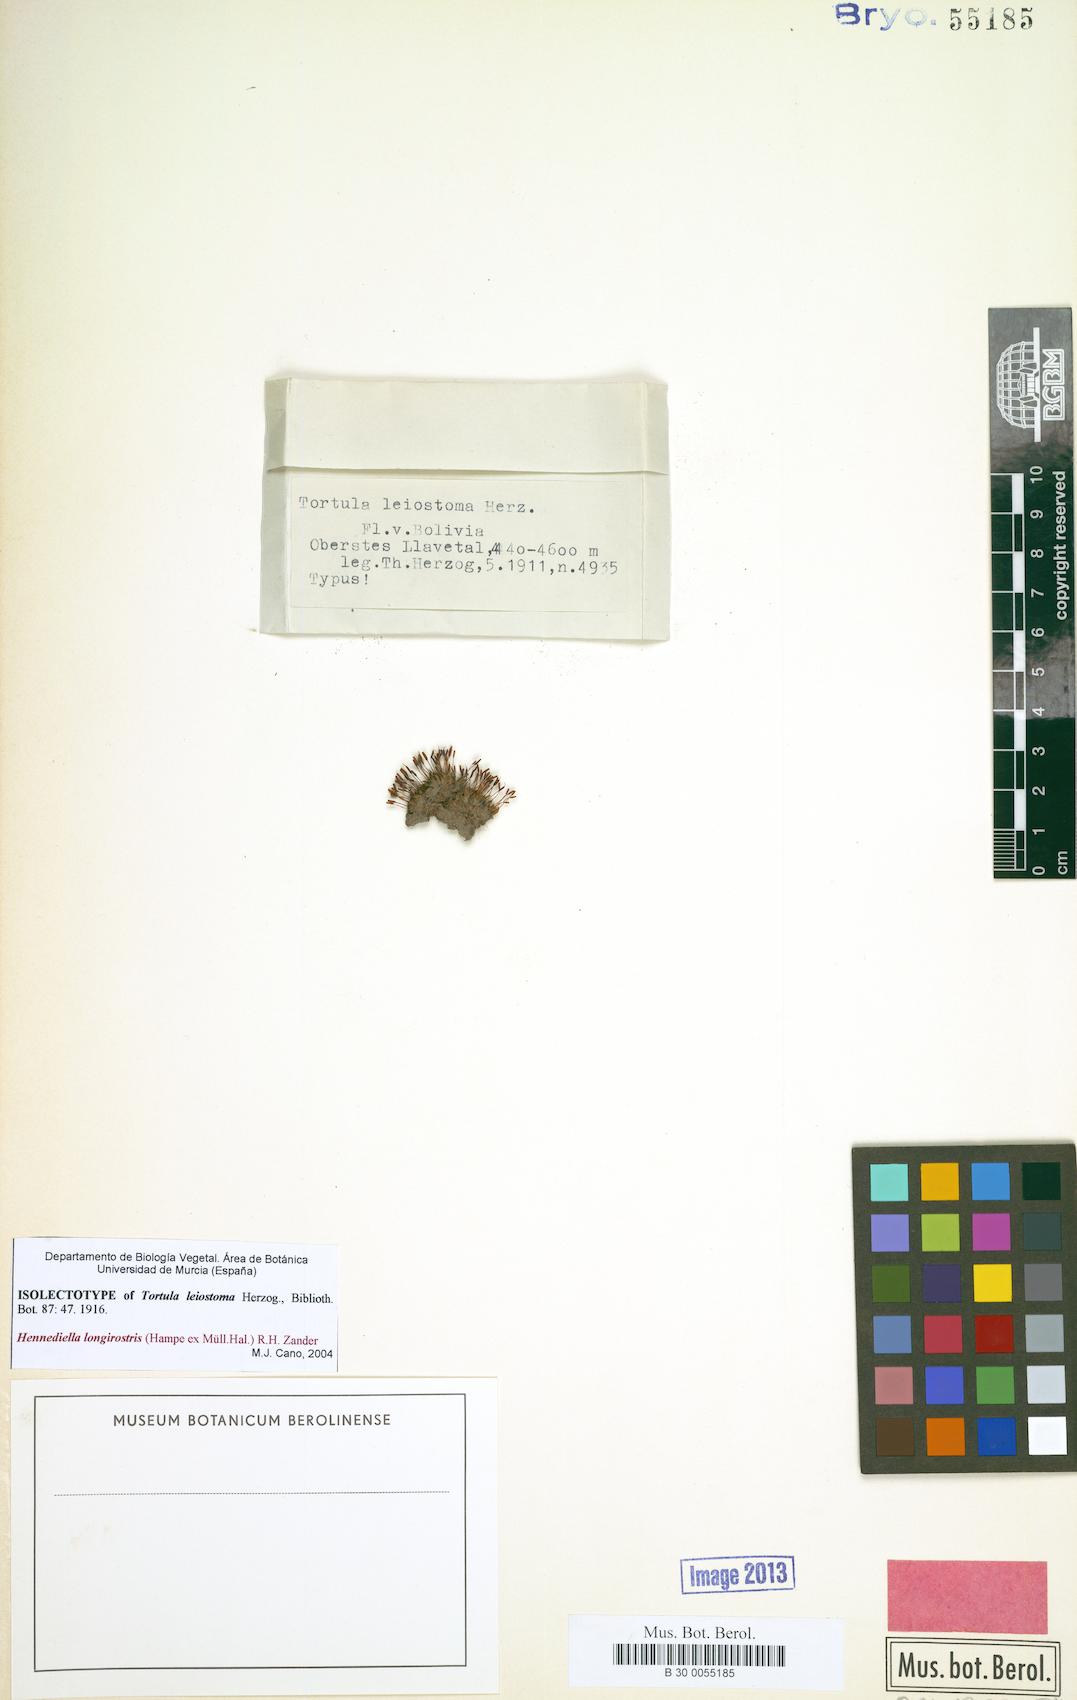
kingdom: Plantae
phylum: Bryophyta
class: Bryopsida
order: Pottiales
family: Pottiaceae
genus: Hennediella
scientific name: Hennediella longirostris
